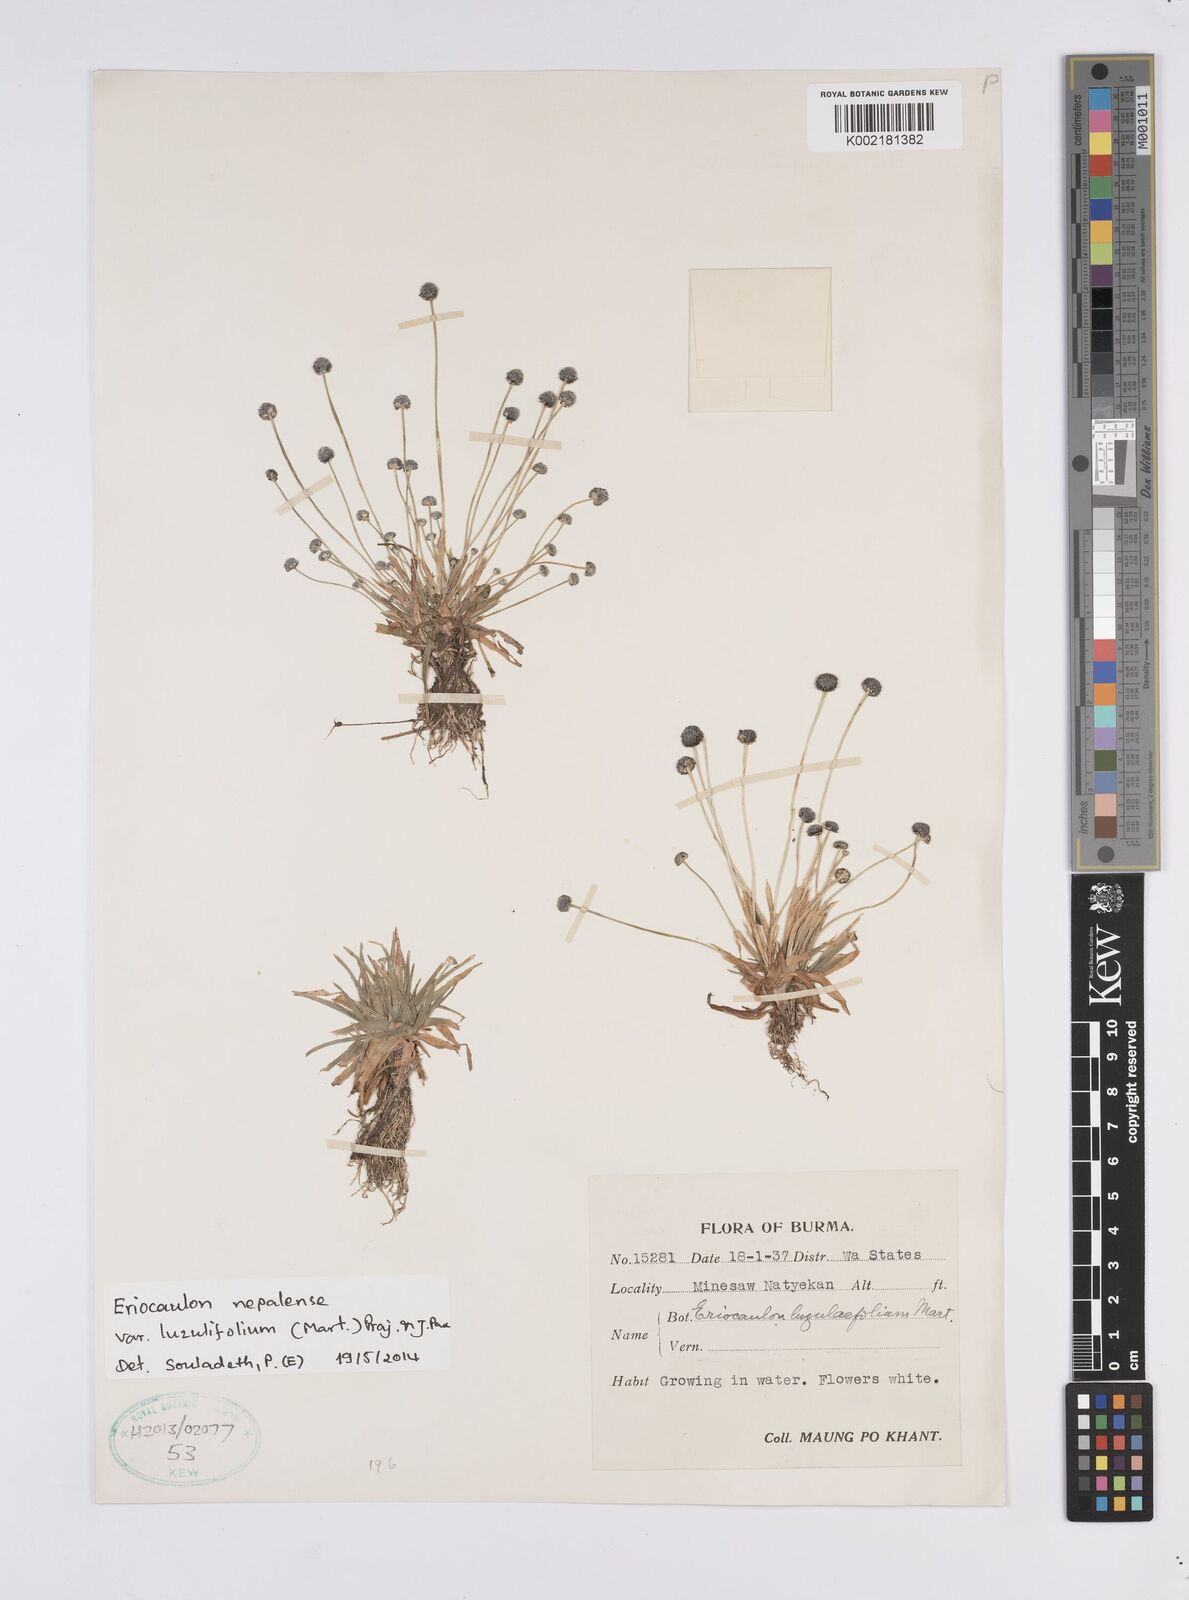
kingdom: Plantae
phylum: Tracheophyta
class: Liliopsida
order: Poales
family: Eriocaulaceae
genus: Eriocaulon
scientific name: Eriocaulon nepalense
